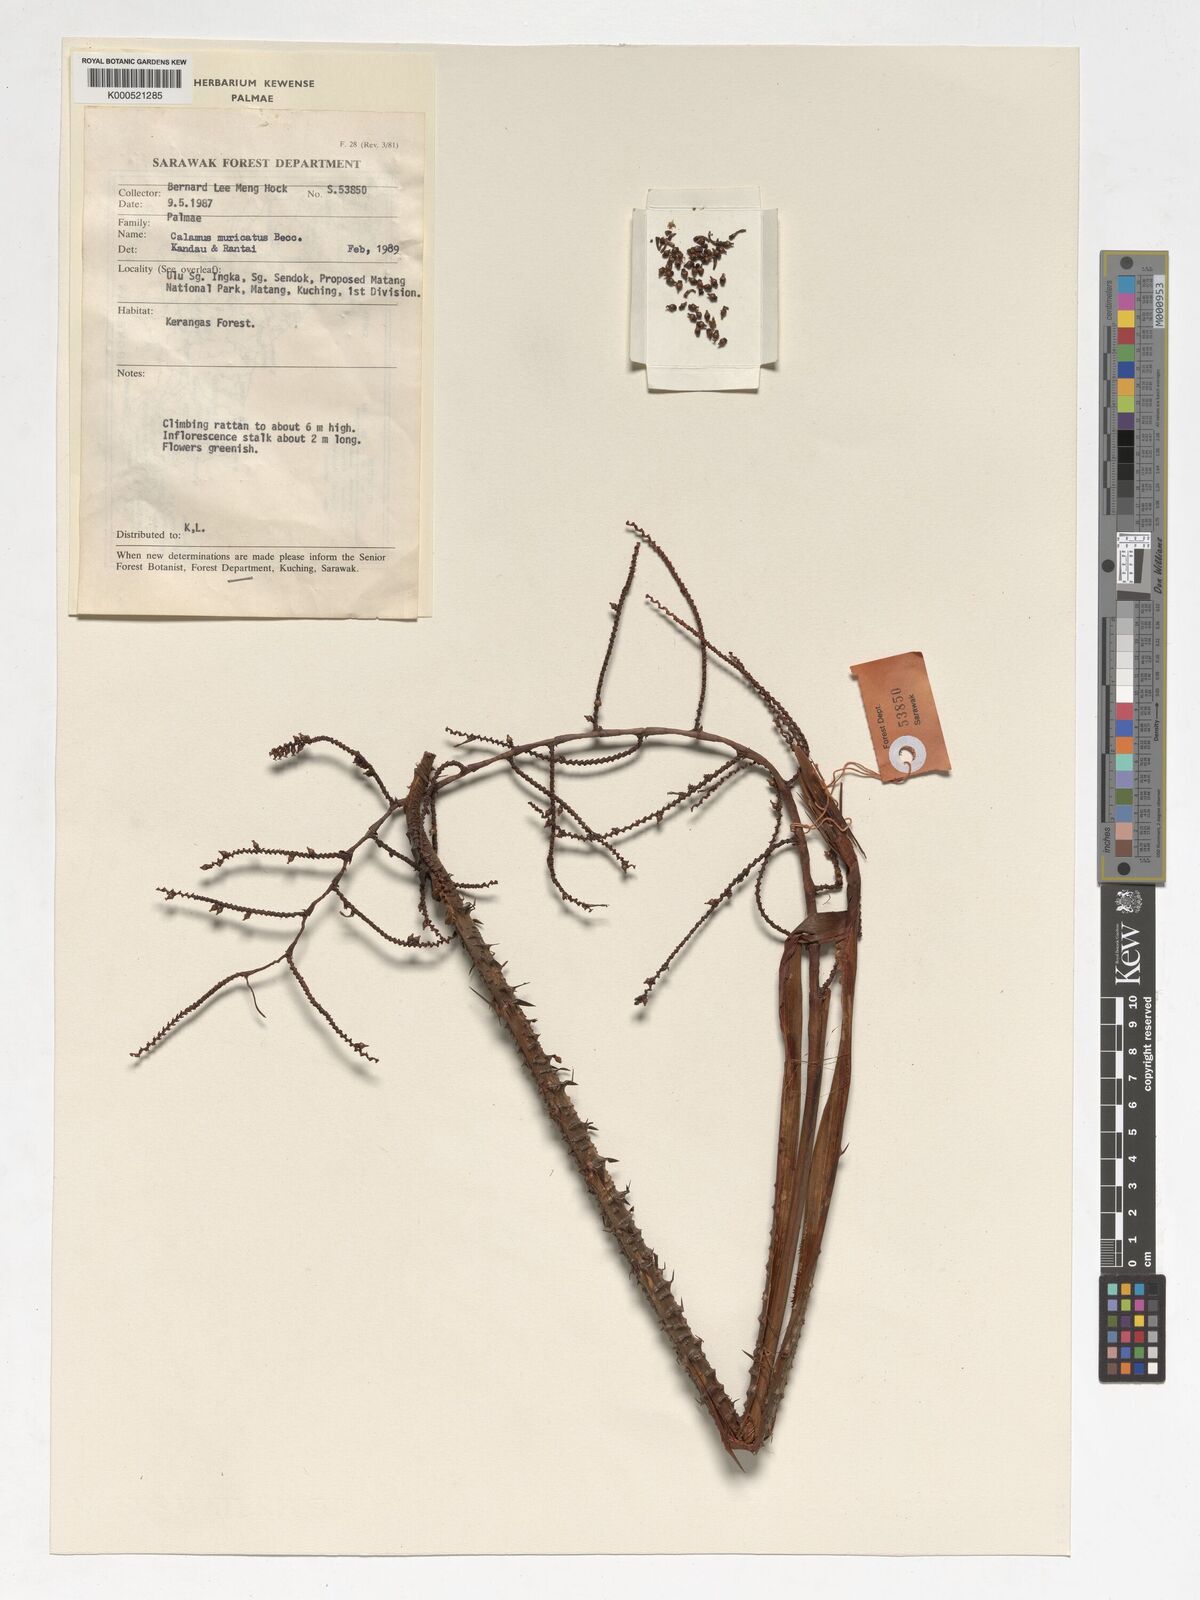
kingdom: Plantae
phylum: Tracheophyta
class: Liliopsida
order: Arecales
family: Arecaceae
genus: Calamus
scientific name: Calamus muricatus
